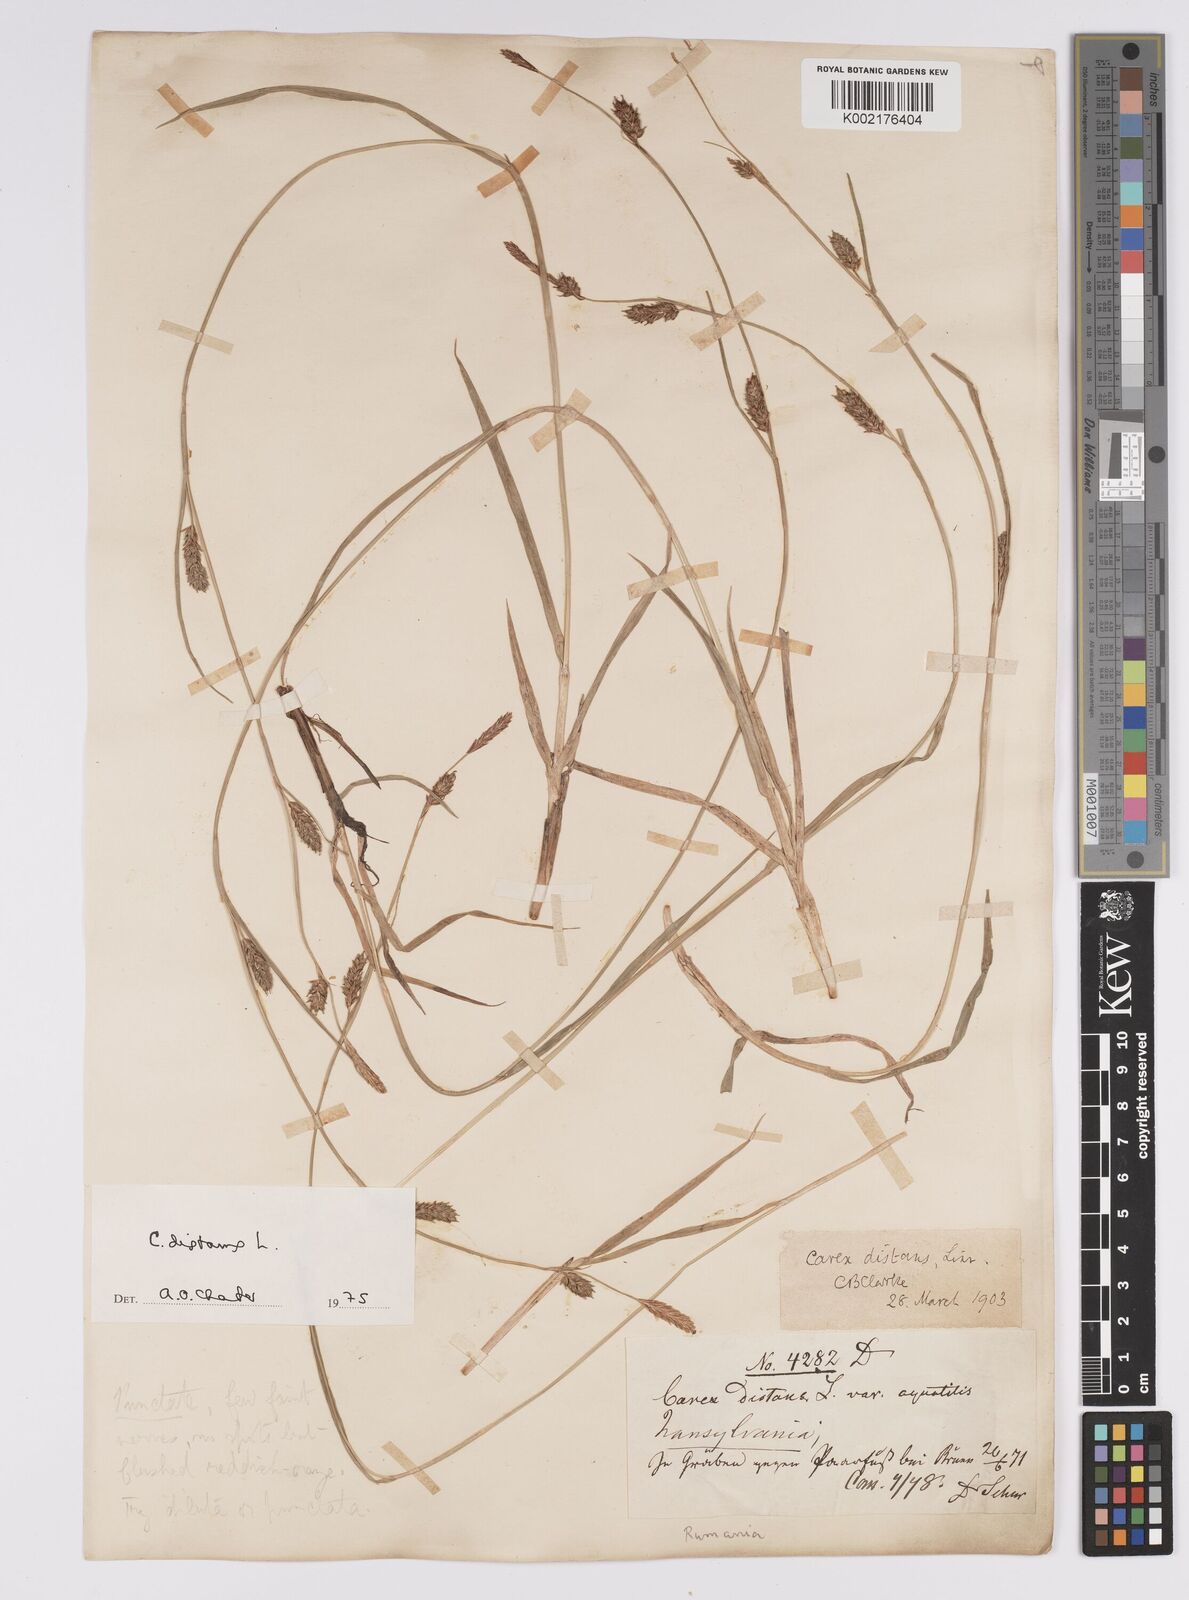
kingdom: Plantae
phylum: Tracheophyta
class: Liliopsida
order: Poales
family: Cyperaceae
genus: Carex
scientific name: Carex distans
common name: Distant sedge
